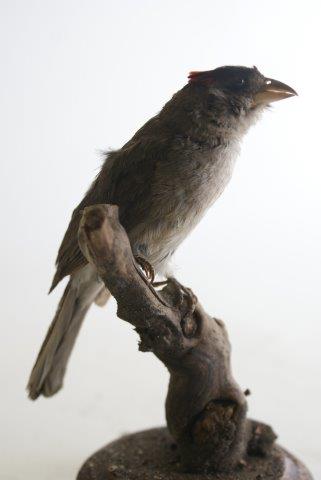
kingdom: Animalia
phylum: Chordata
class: Aves
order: Piciformes
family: Lybiidae
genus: Trachyphonus
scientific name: Trachyphonus
